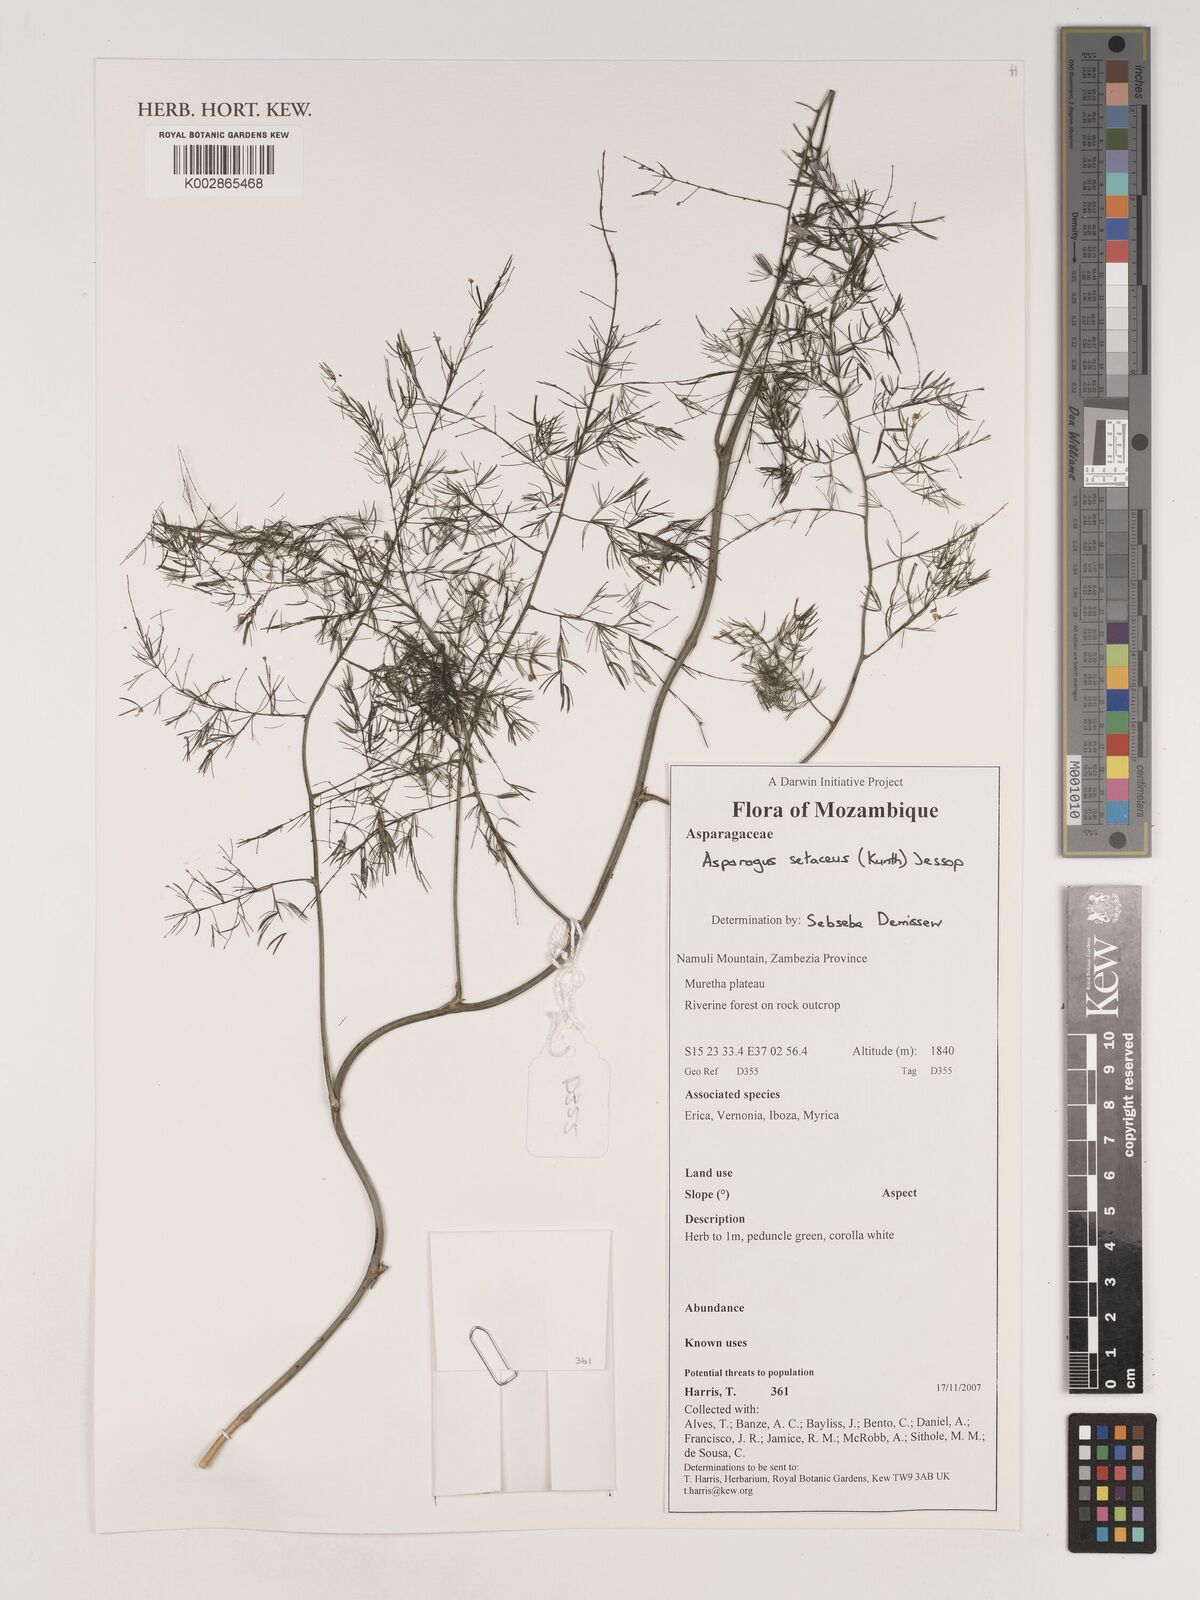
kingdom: Plantae
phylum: Tracheophyta
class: Liliopsida
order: Asparagales
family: Asparagaceae
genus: Asparagus
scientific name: Asparagus setaceus
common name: Common asparagus fern
